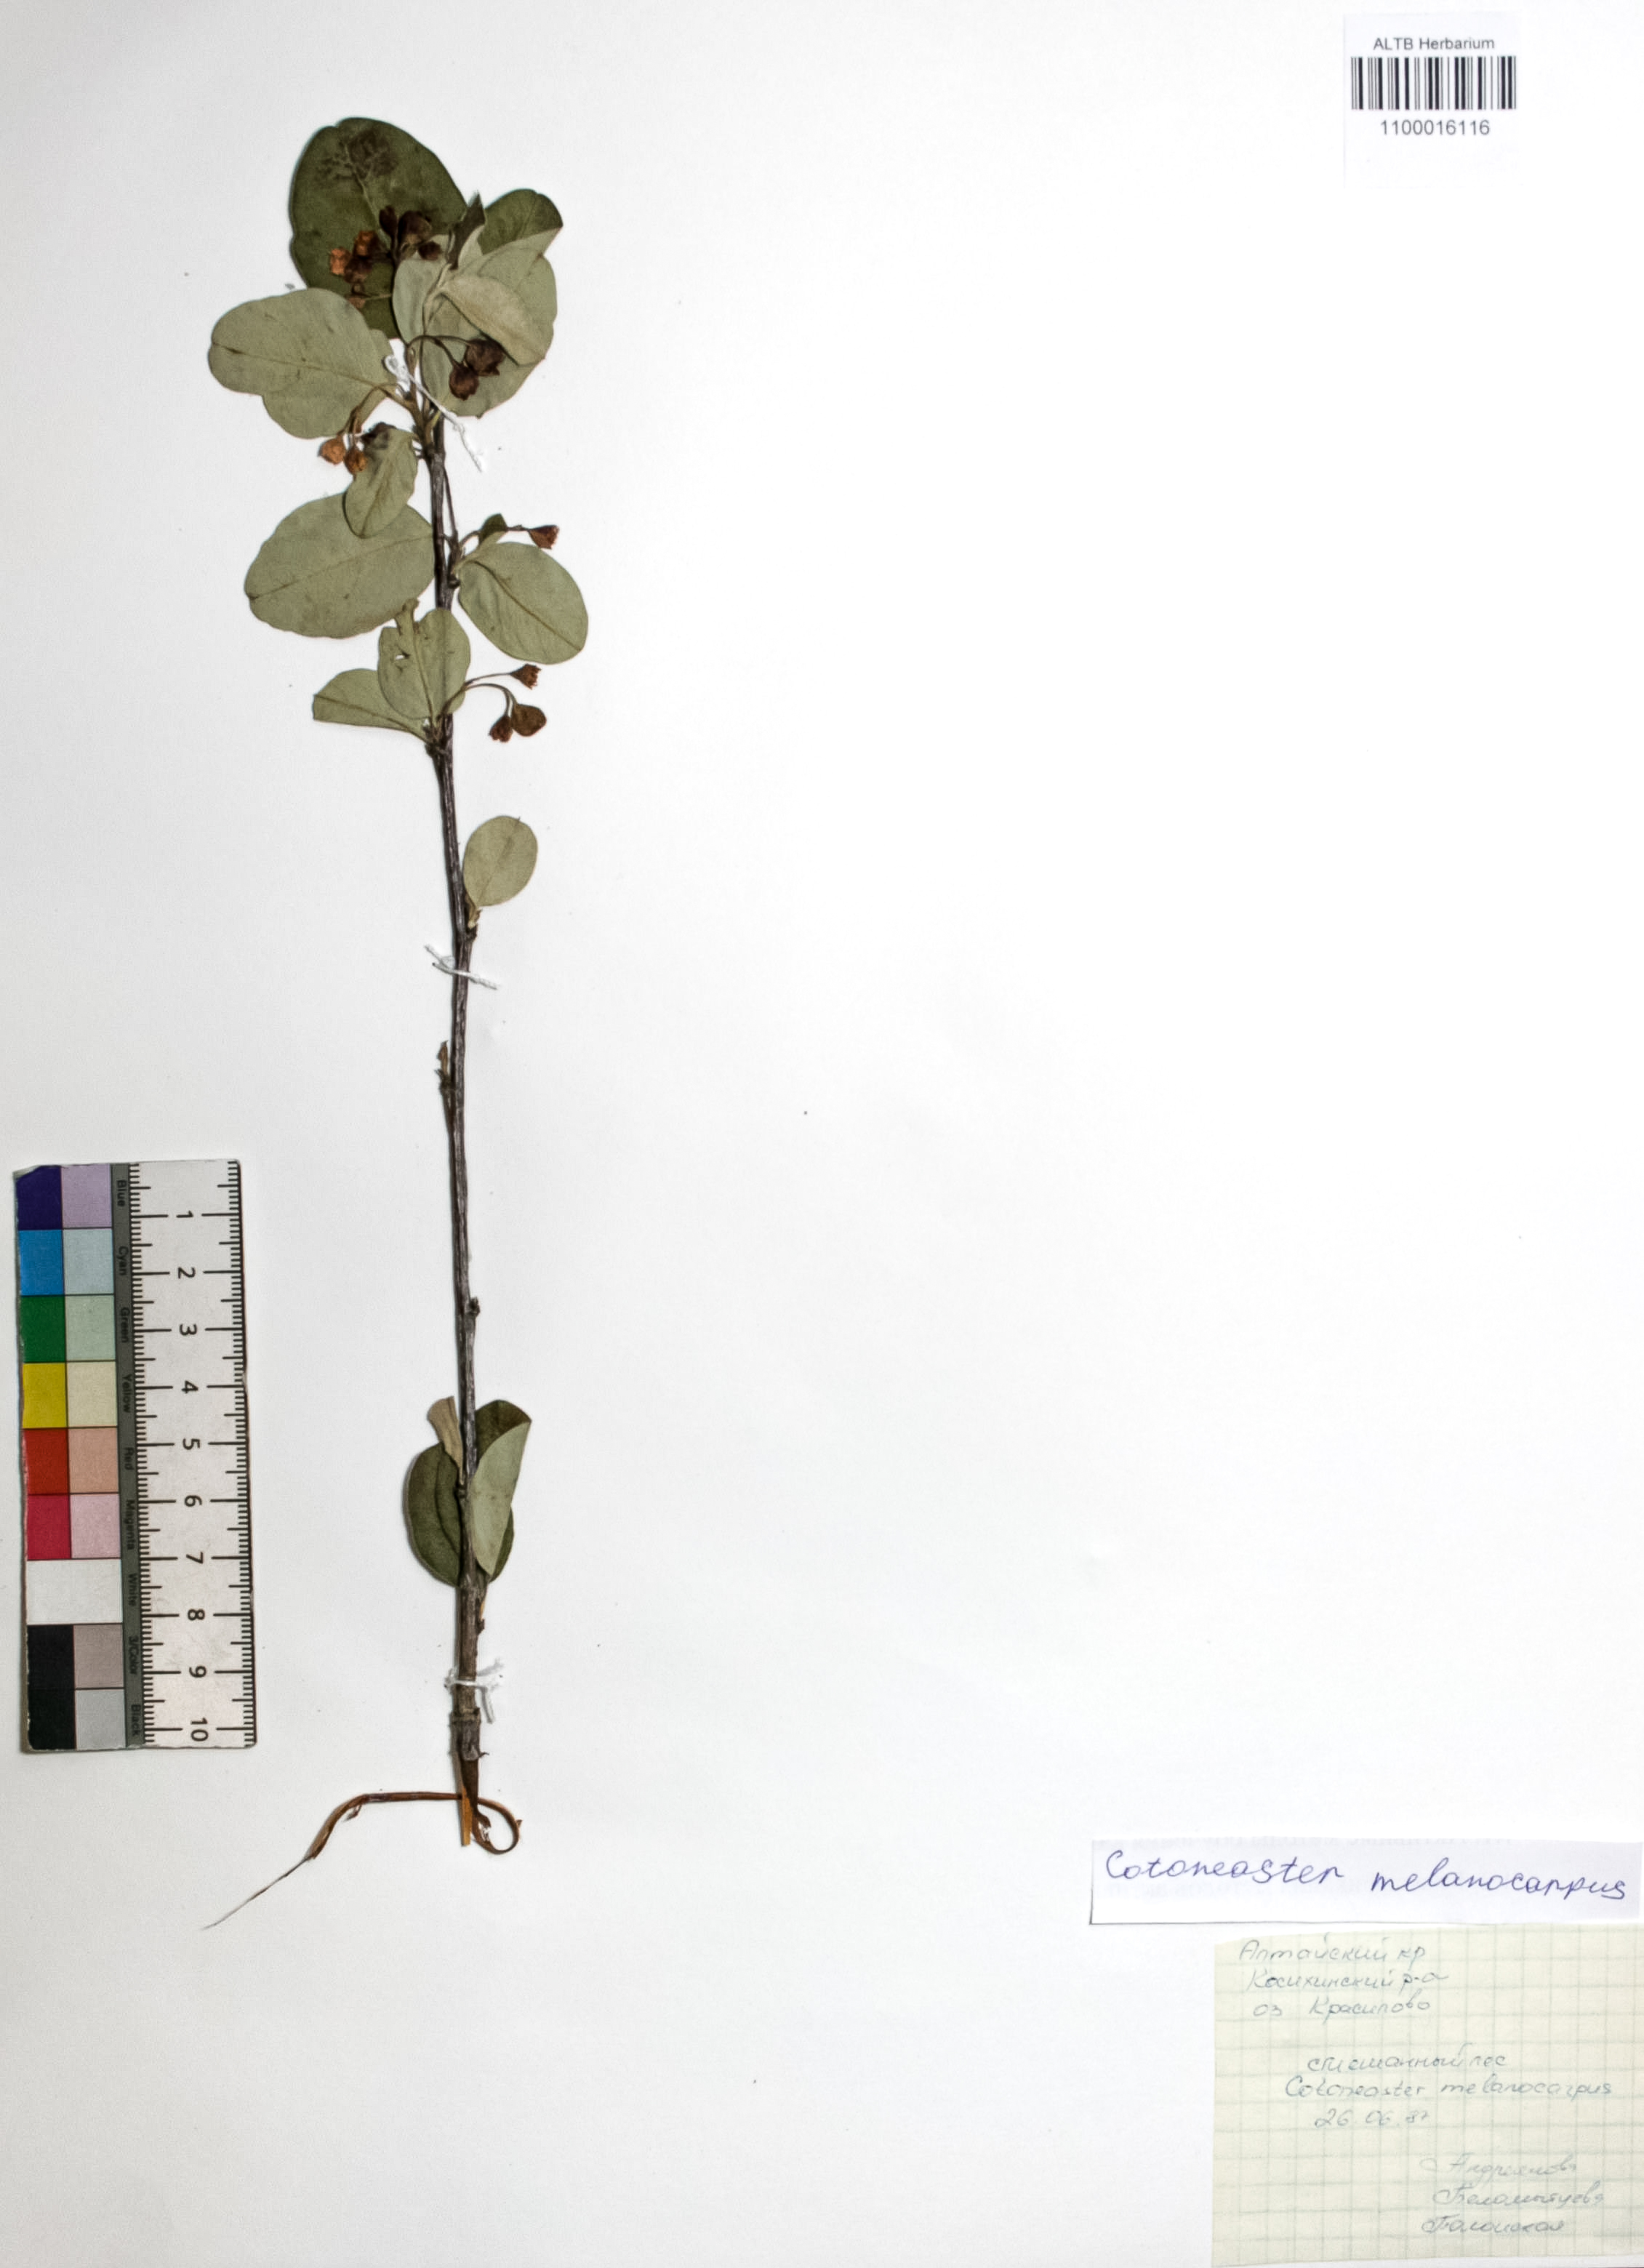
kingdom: Plantae
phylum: Tracheophyta
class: Magnoliopsida
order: Rosales
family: Rosaceae
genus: Cotoneaster
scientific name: Cotoneaster niger
